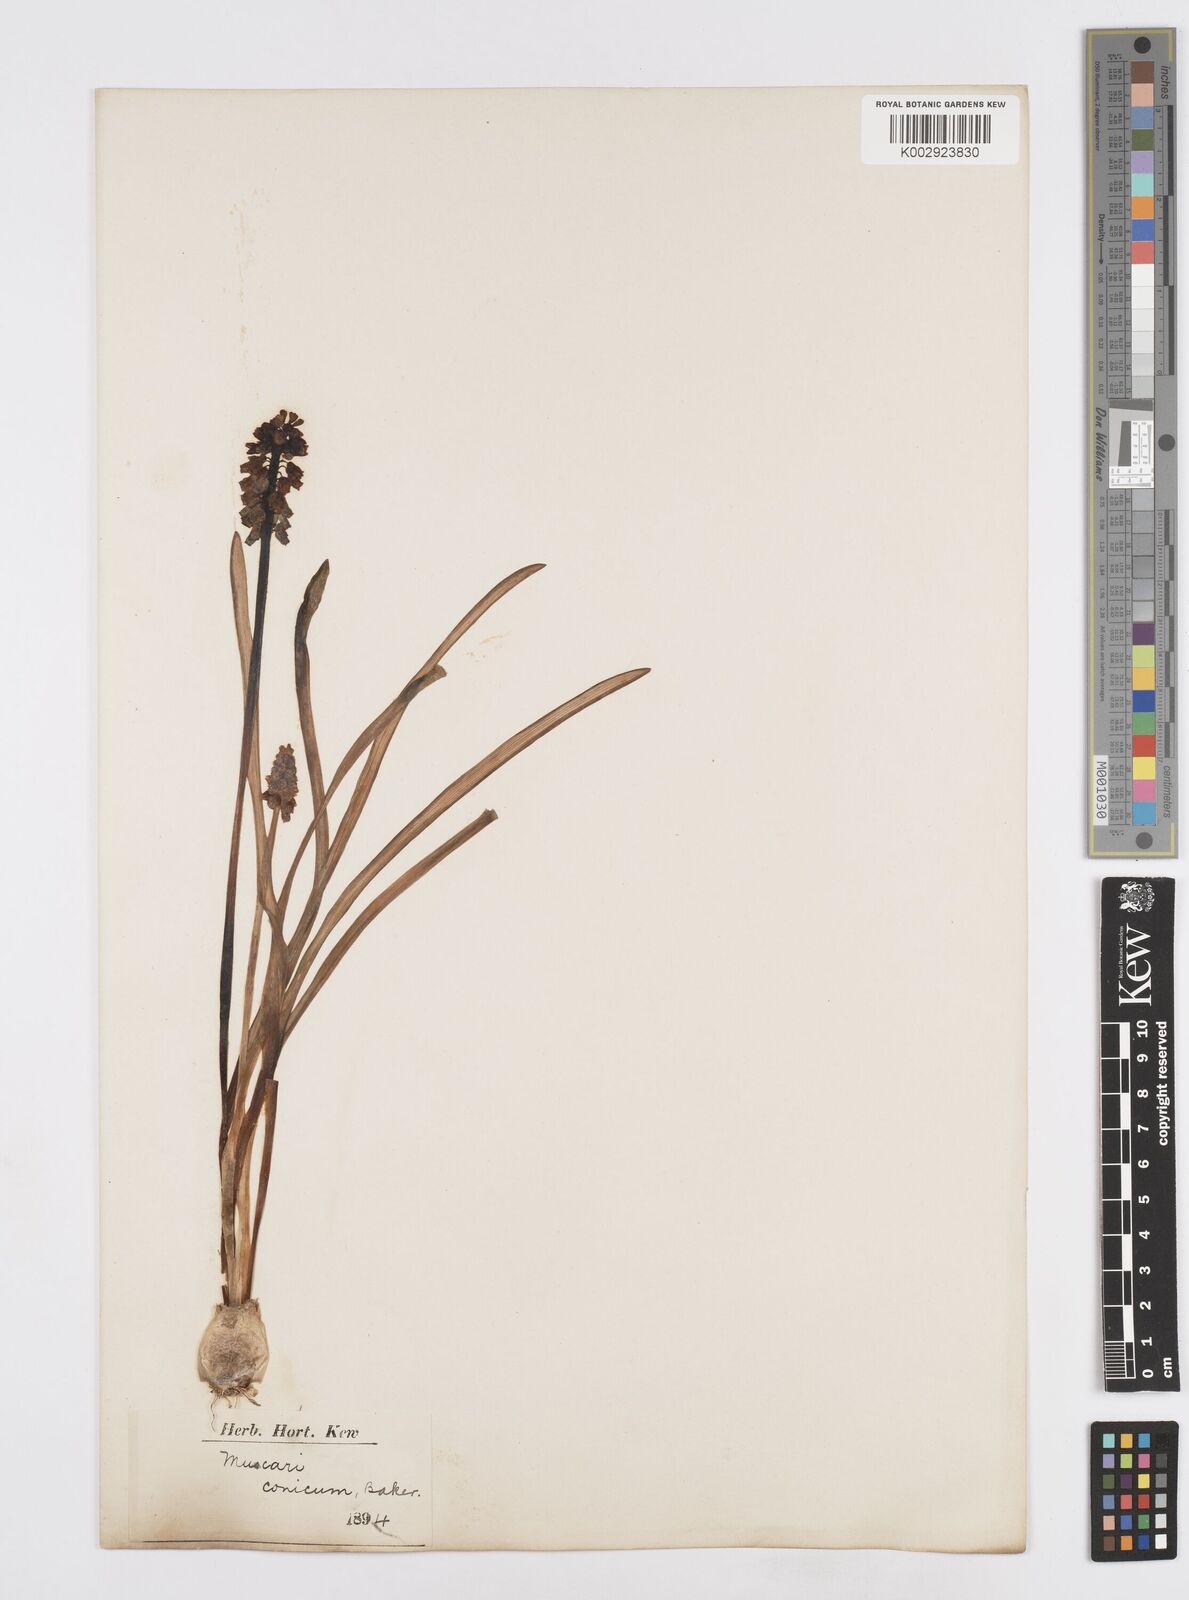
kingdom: Plantae
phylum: Tracheophyta
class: Liliopsida
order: Asparagales
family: Asparagaceae
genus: Muscari
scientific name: Muscari armeniacum
